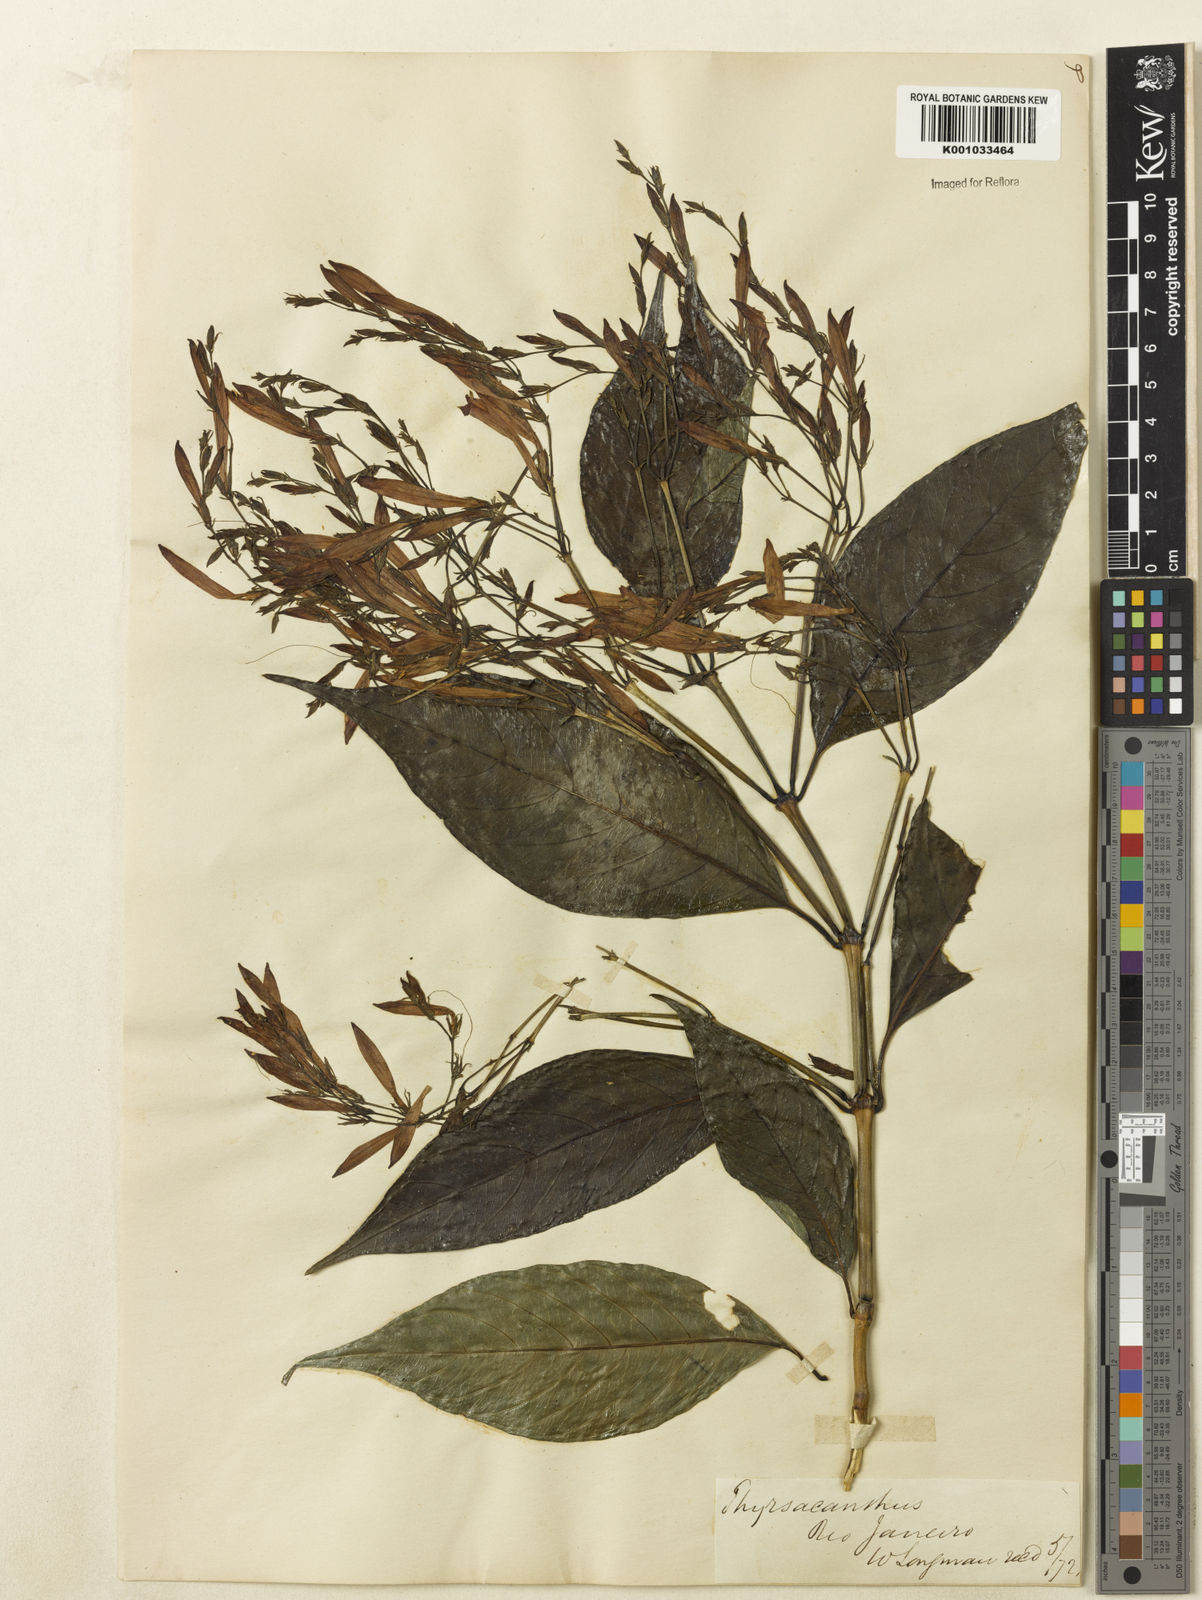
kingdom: Plantae
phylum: Tracheophyta
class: Magnoliopsida
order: Lamiales
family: Acanthaceae
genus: Justicia
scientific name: Justicia polita
